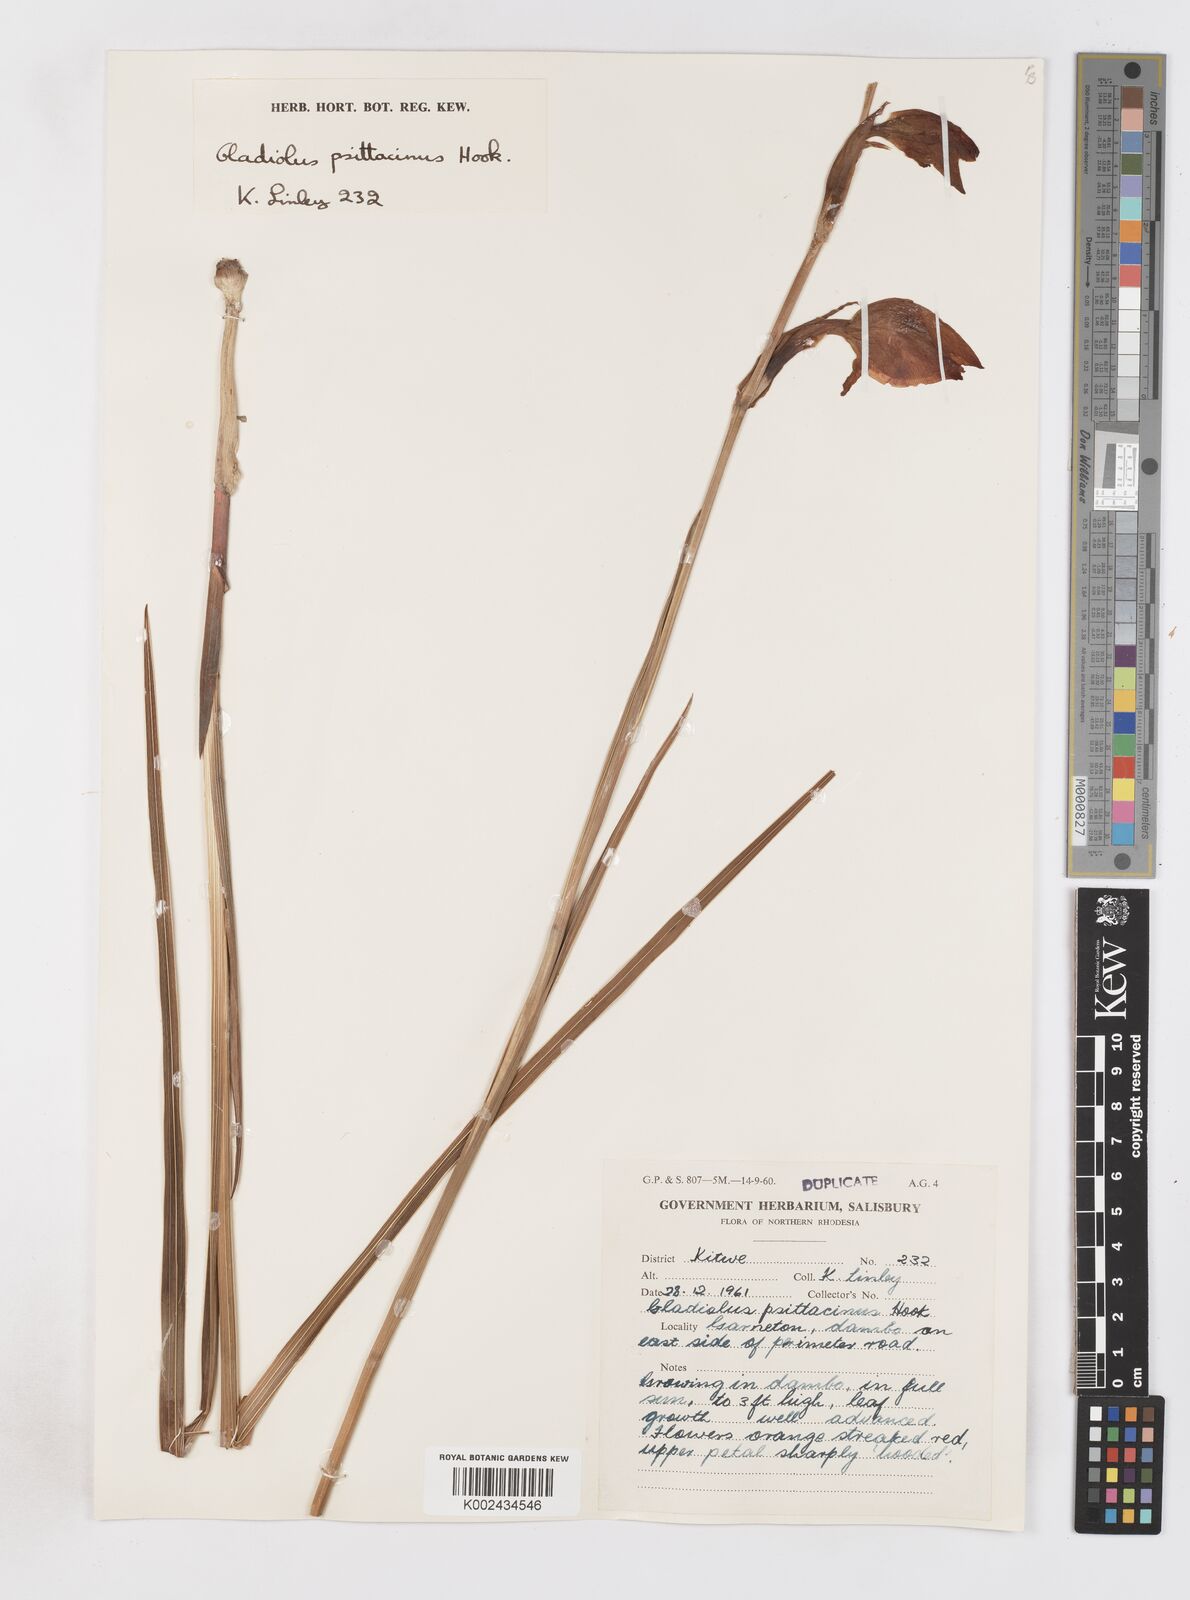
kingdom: Plantae
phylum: Tracheophyta
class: Liliopsida
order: Asparagales
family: Iridaceae
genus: Gladiolus
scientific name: Gladiolus dalenii
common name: Cornflag
